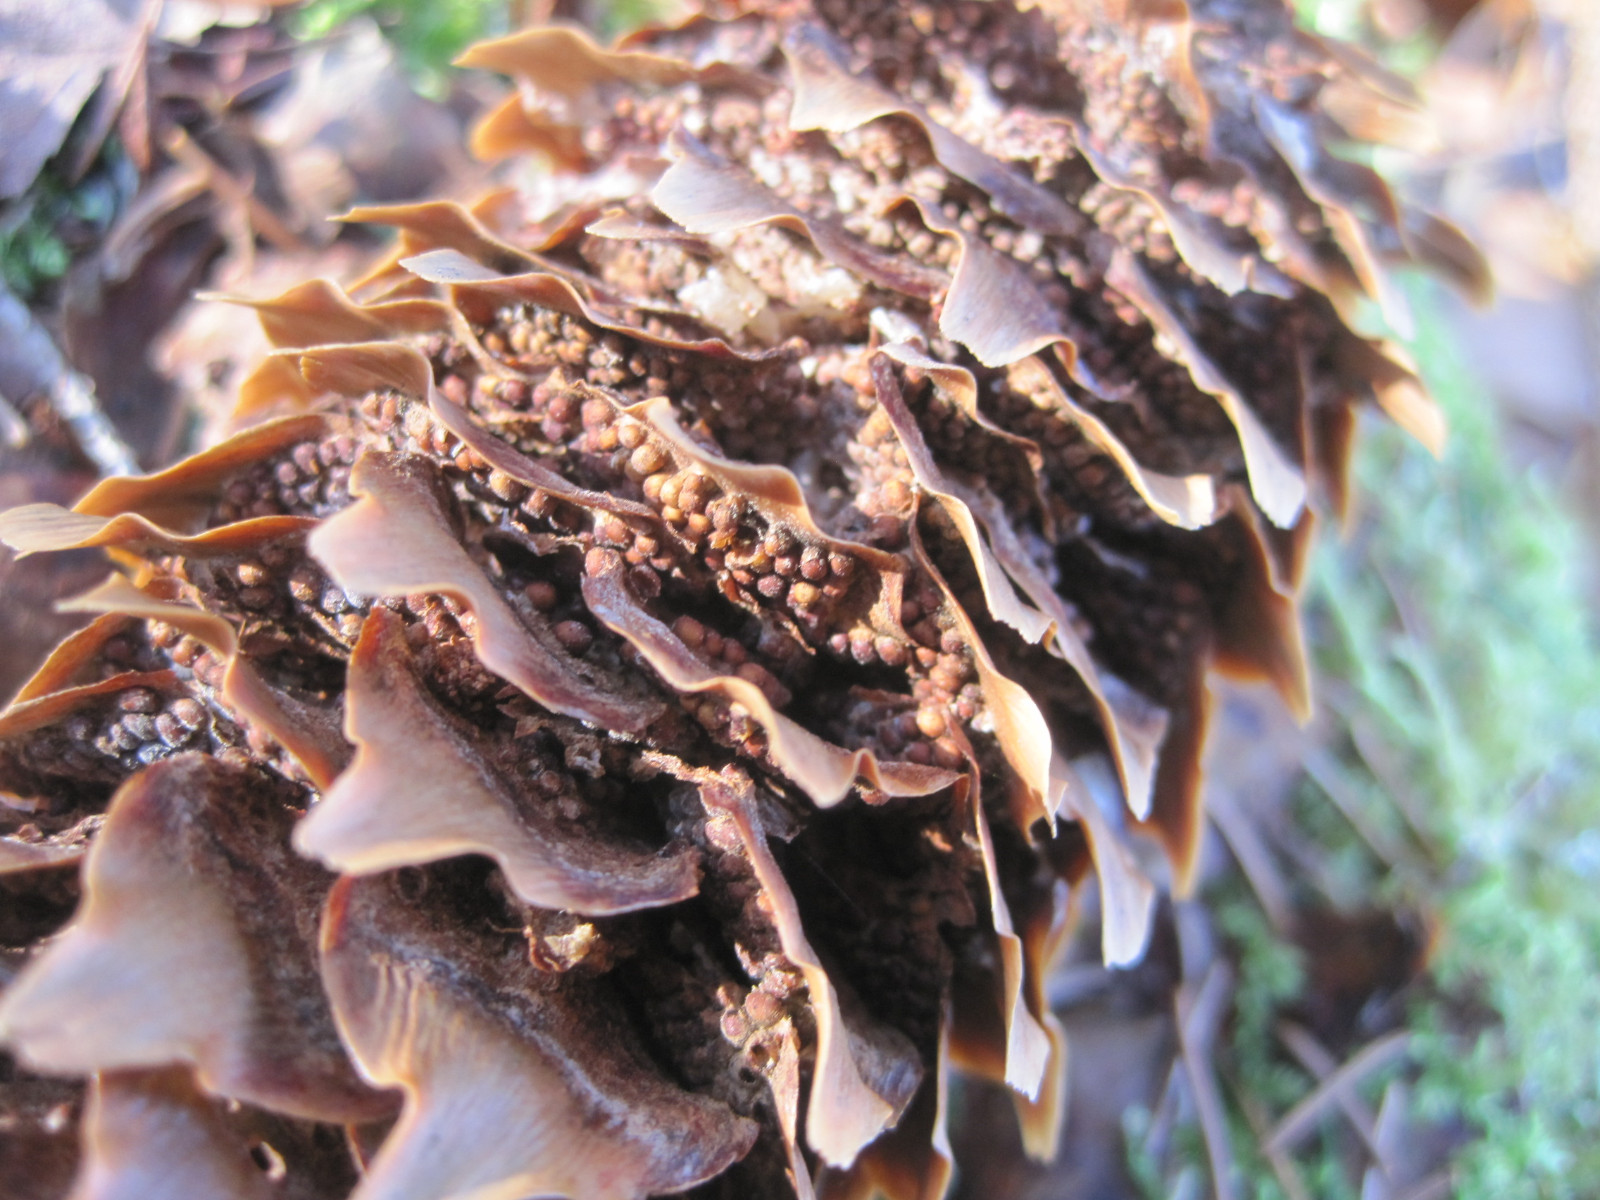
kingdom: Fungi
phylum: Basidiomycota
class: Pucciniomycetes
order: Pucciniales
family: Pucciniastraceae
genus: Thekopsora
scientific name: Thekopsora areolata
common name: grankogle-nålerust
